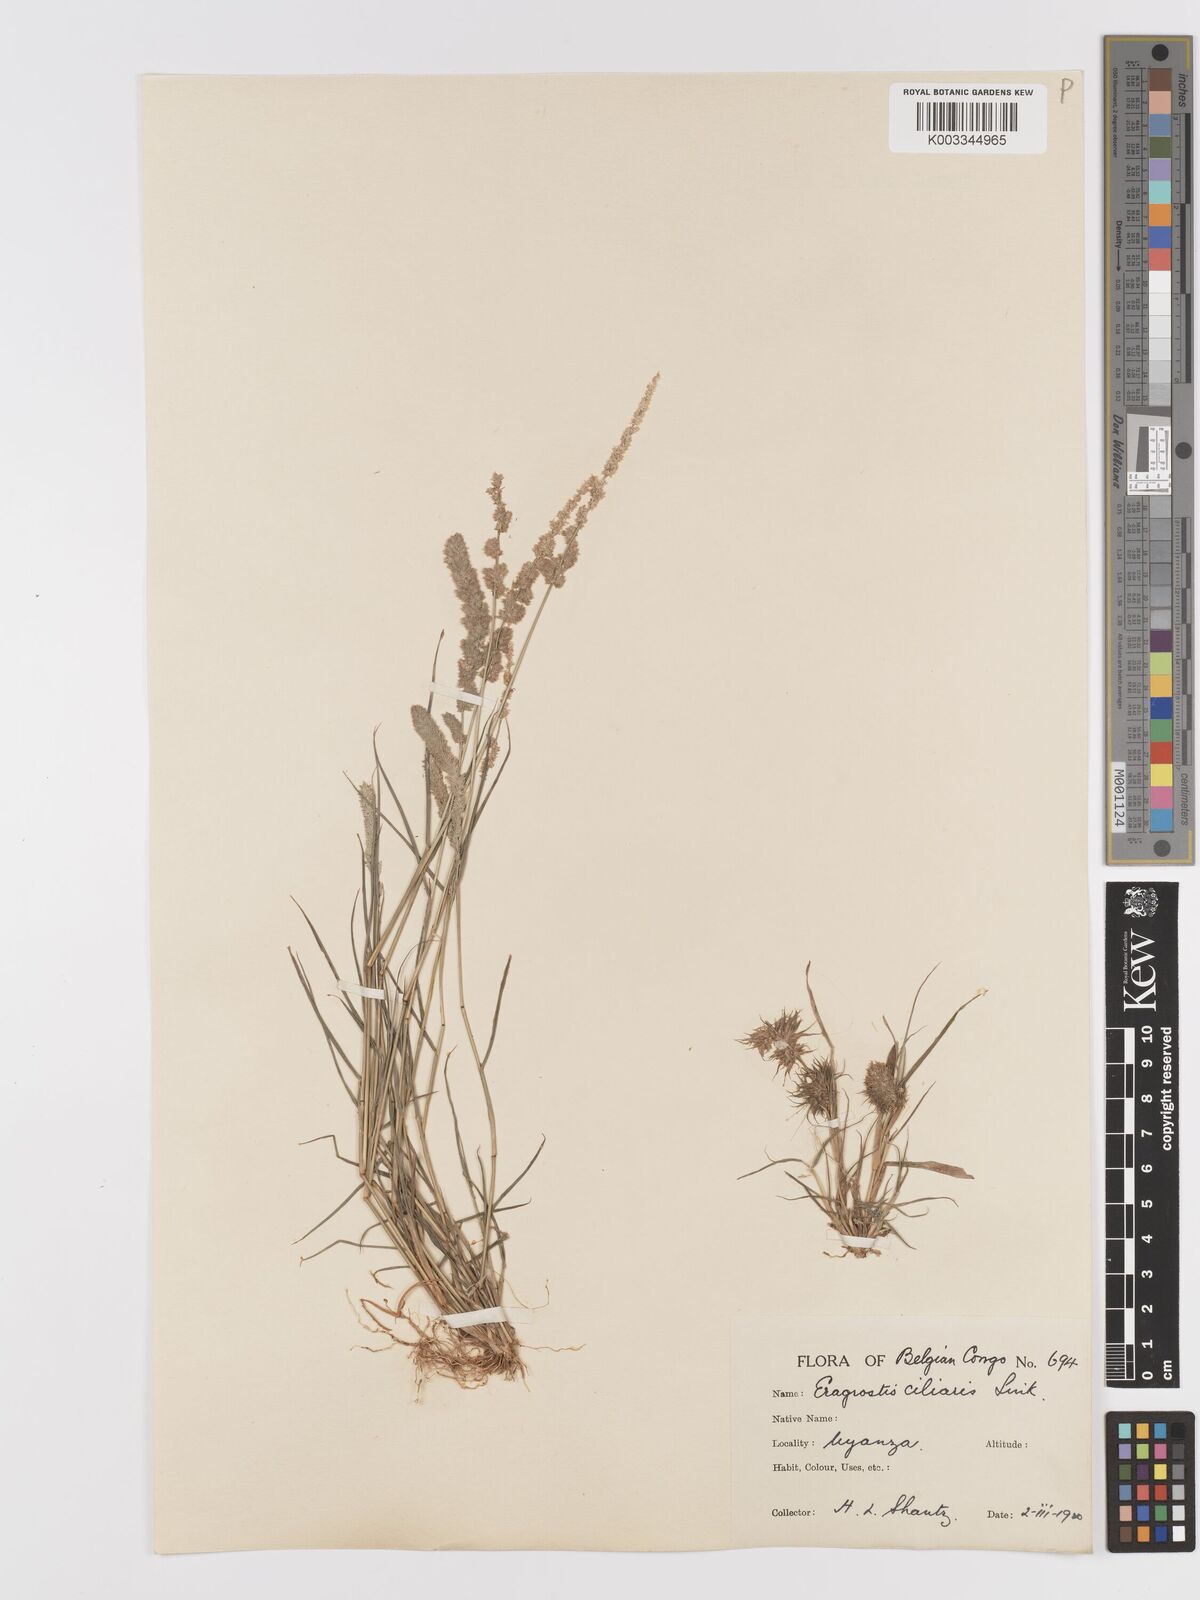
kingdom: Plantae
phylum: Tracheophyta
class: Liliopsida
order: Poales
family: Poaceae
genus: Eragrostis
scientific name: Eragrostis ciliaris
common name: Gophertail lovegrass
